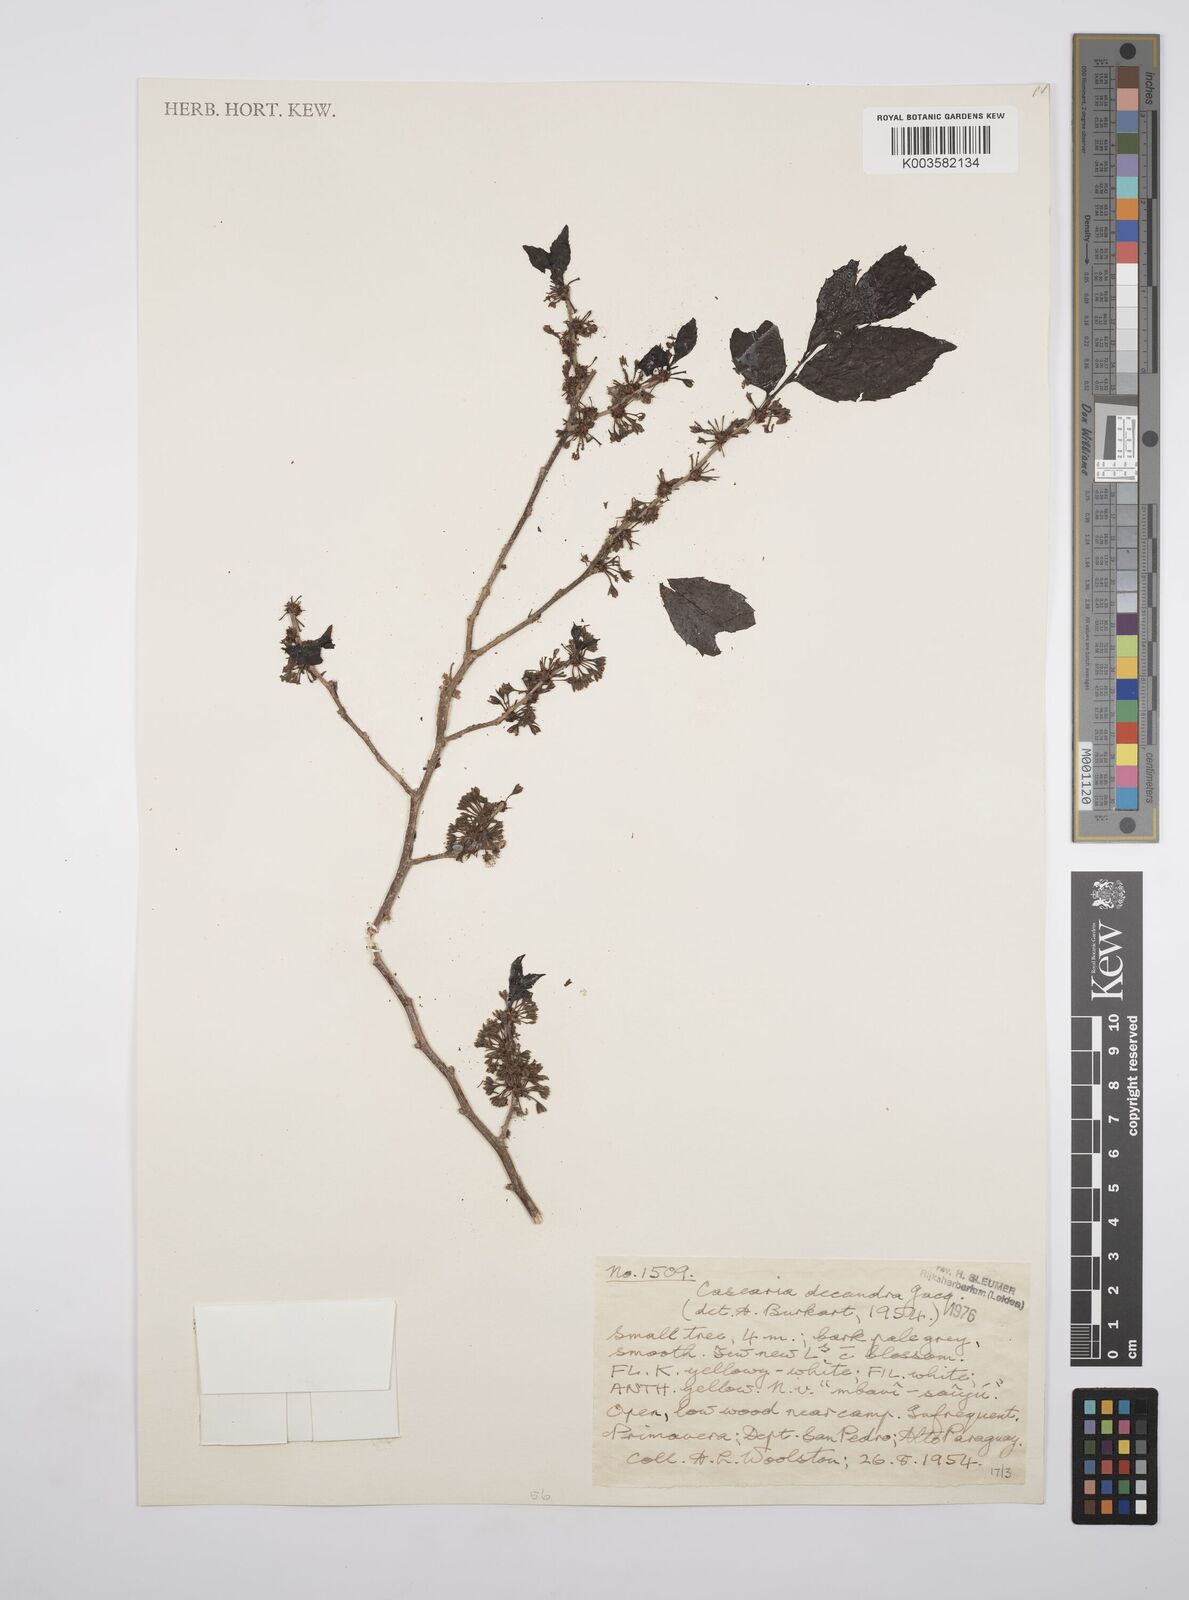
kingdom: Plantae
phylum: Tracheophyta
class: Magnoliopsida
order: Malpighiales
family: Salicaceae
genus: Casearia
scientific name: Casearia
